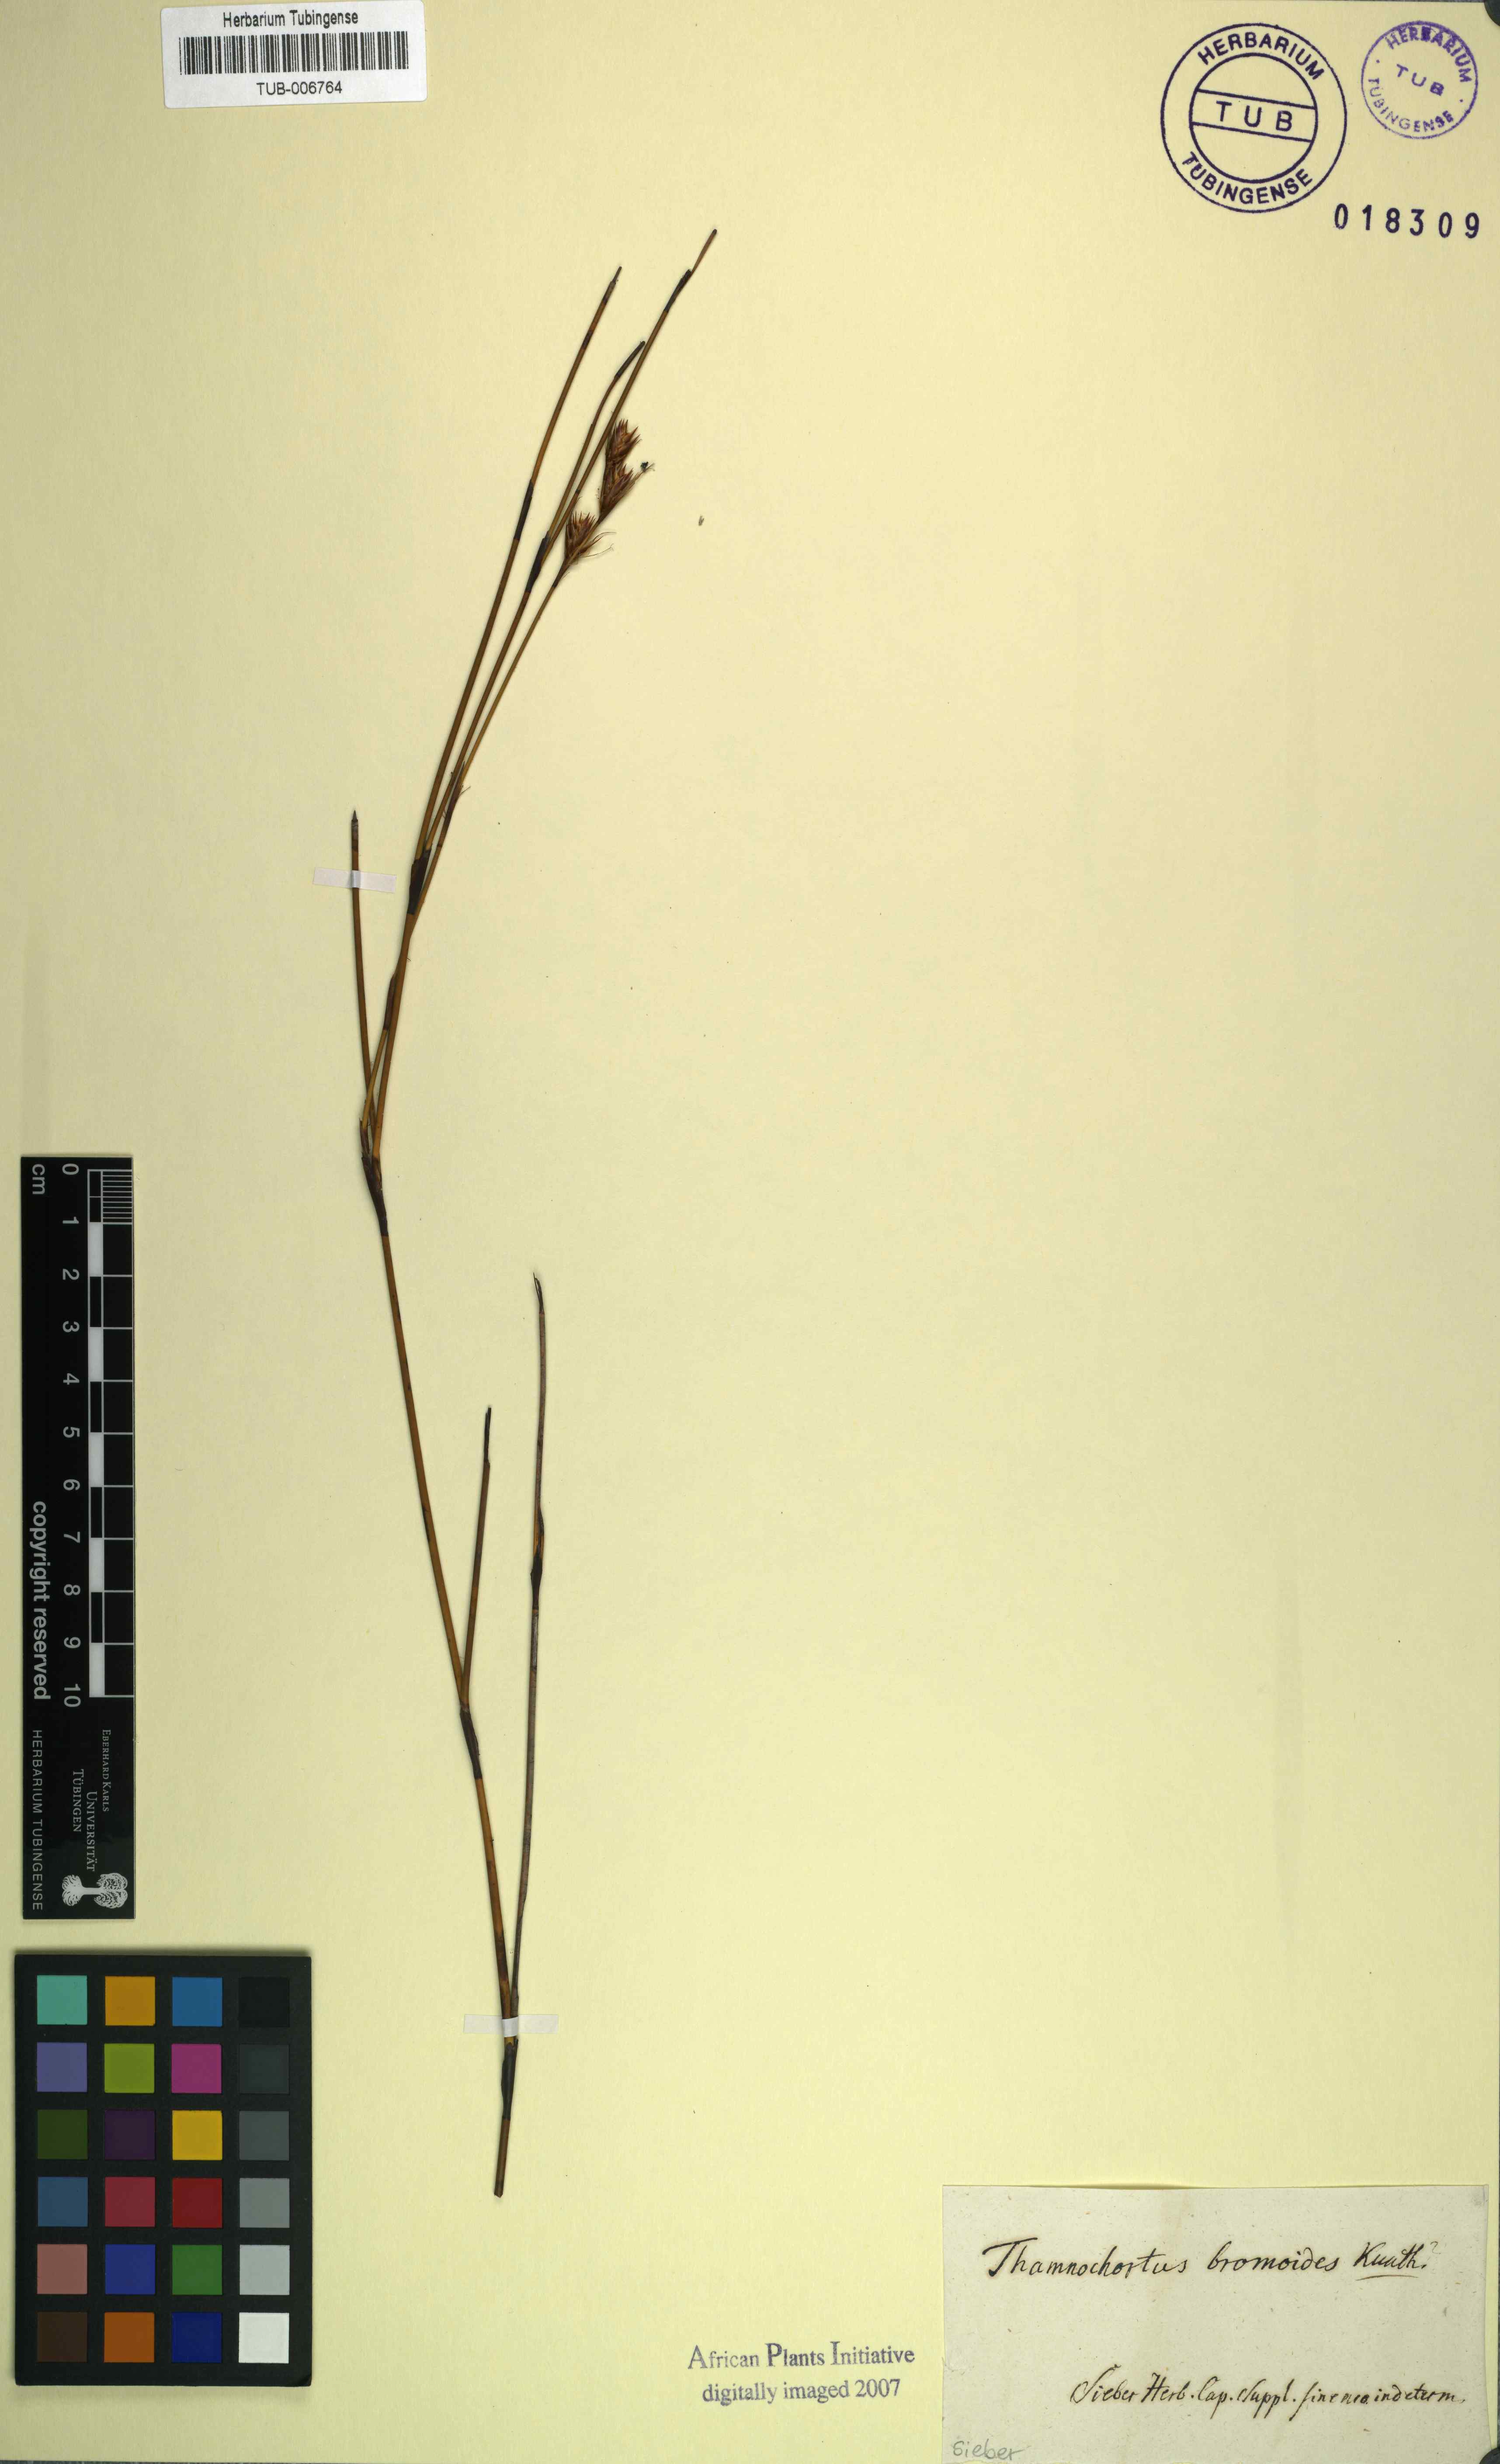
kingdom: Plantae
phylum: Tracheophyta
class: Liliopsida
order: Poales
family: Restionaceae
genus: Thamnochortus
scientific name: Thamnochortus lucens
